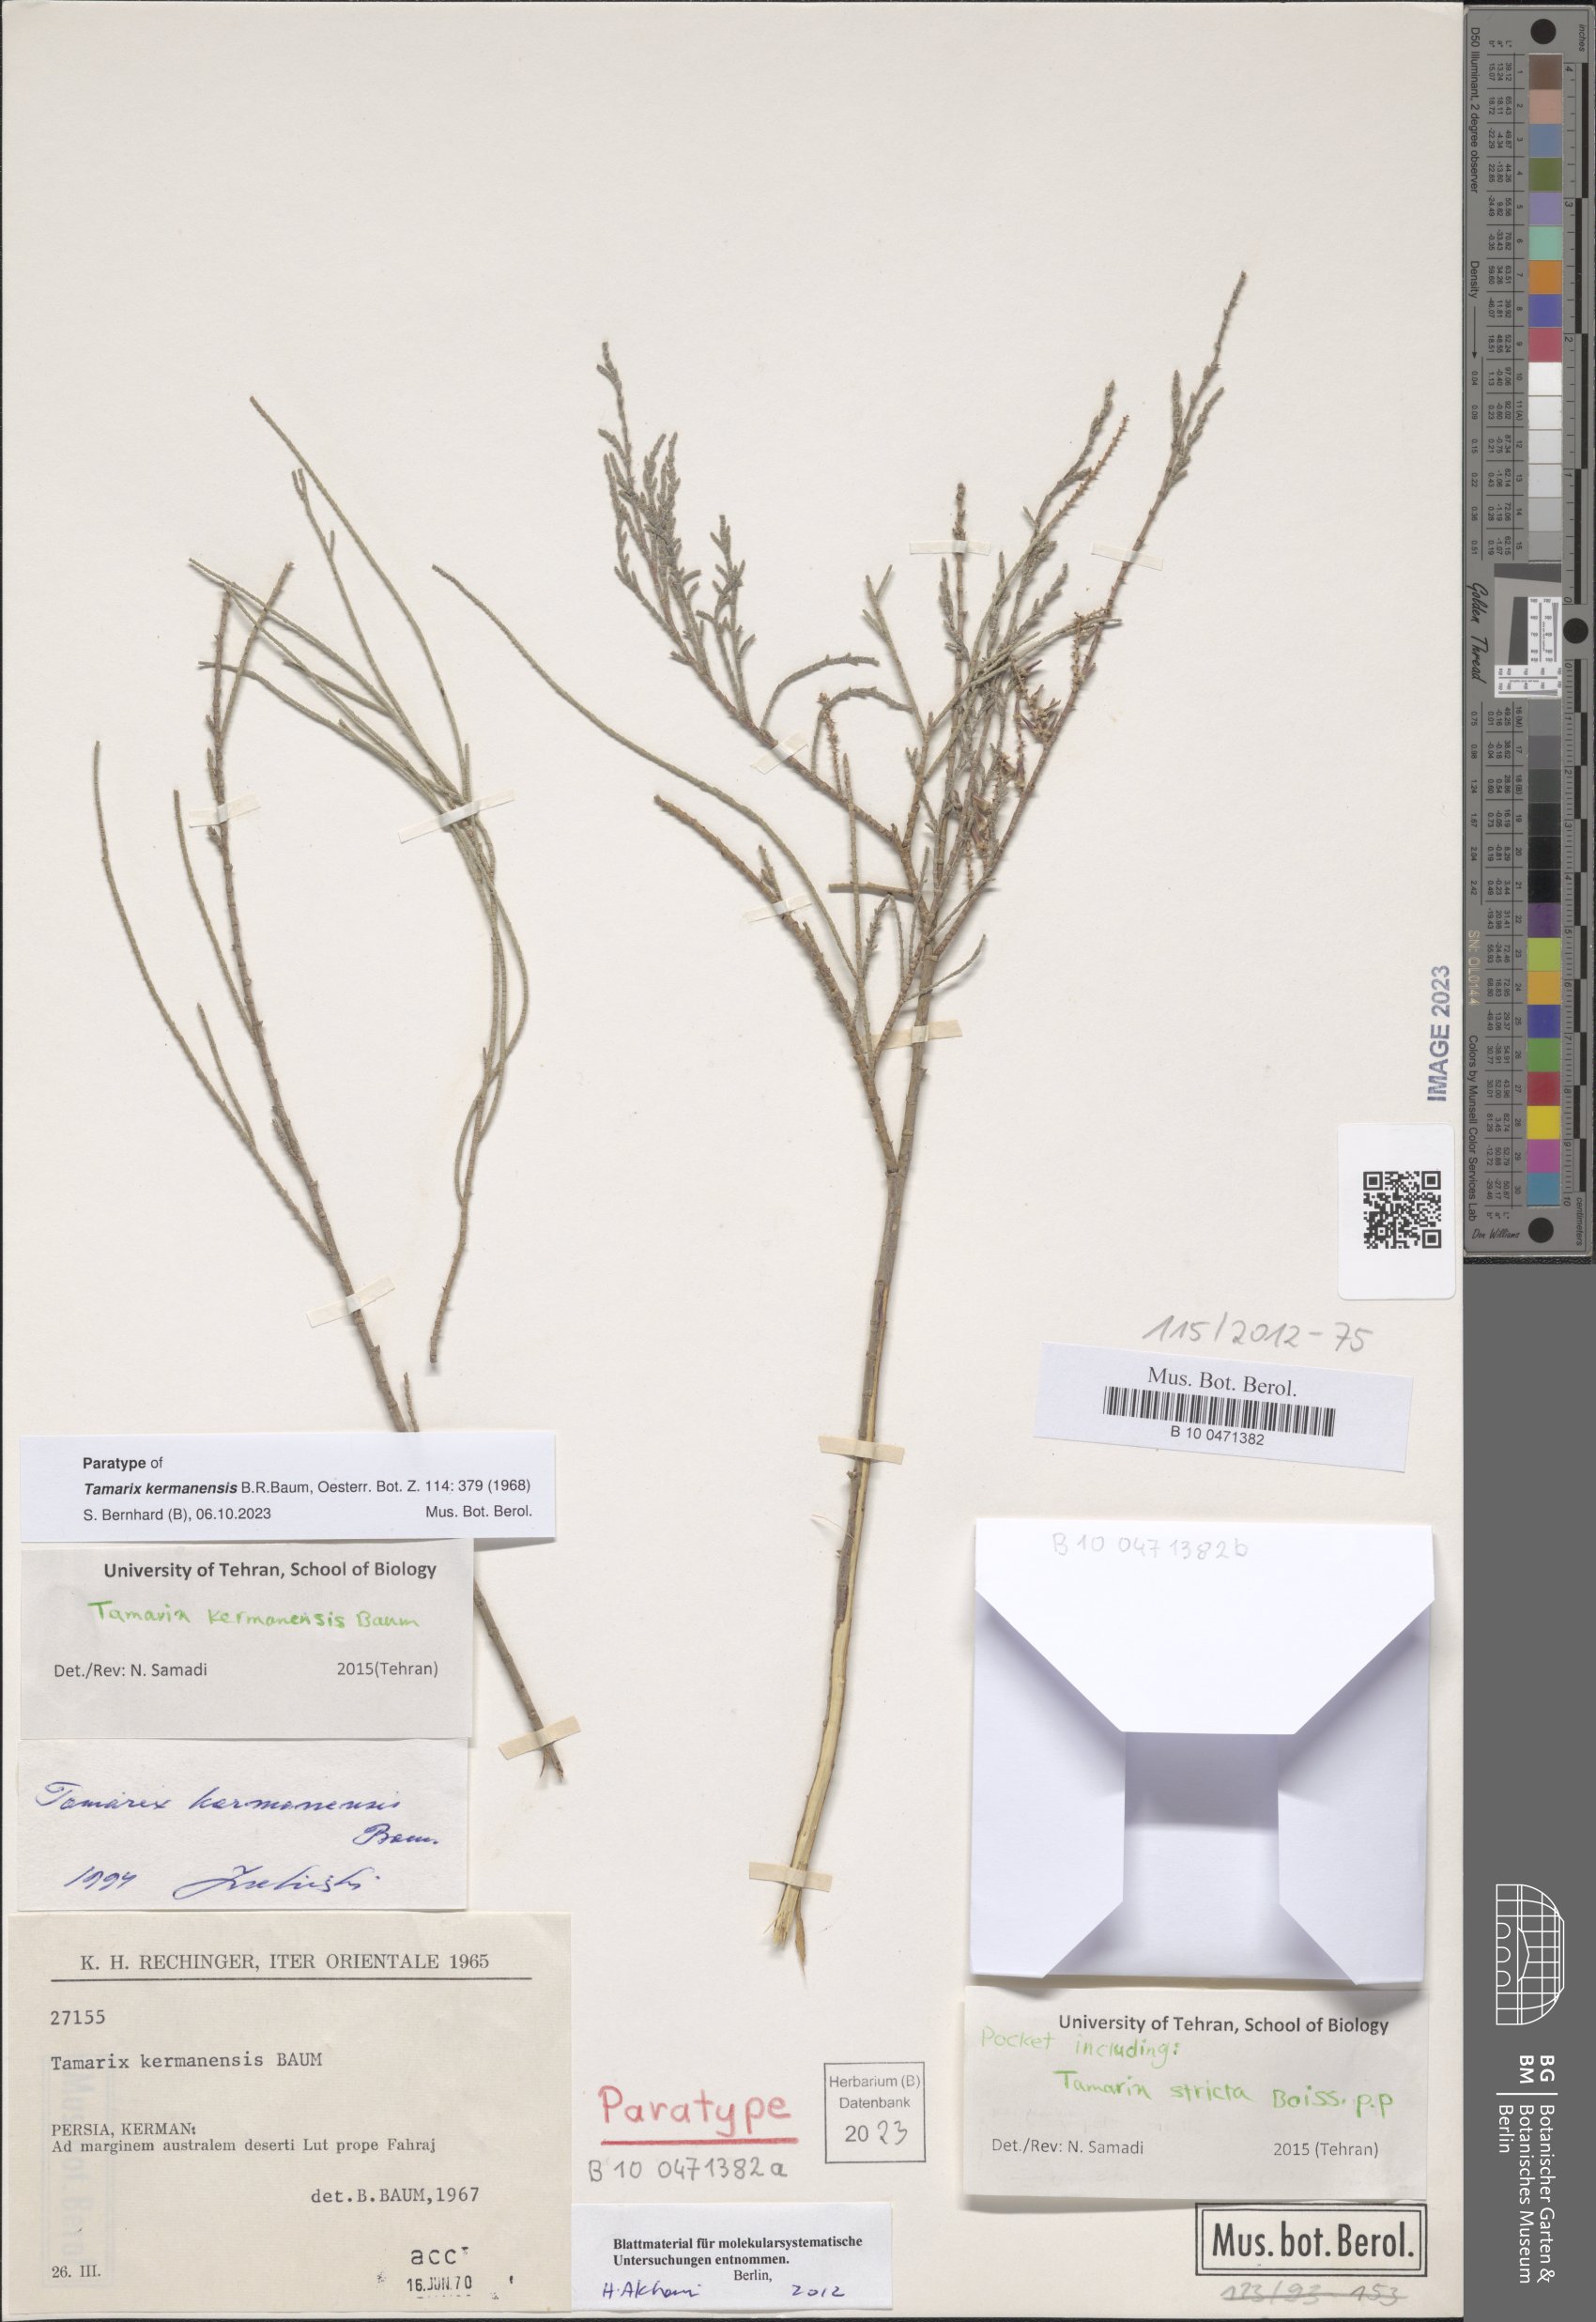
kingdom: Plantae
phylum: Tracheophyta
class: Magnoliopsida
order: Caryophyllales
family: Tamaricaceae
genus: Tamarix
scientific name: Tamarix kermanensis
